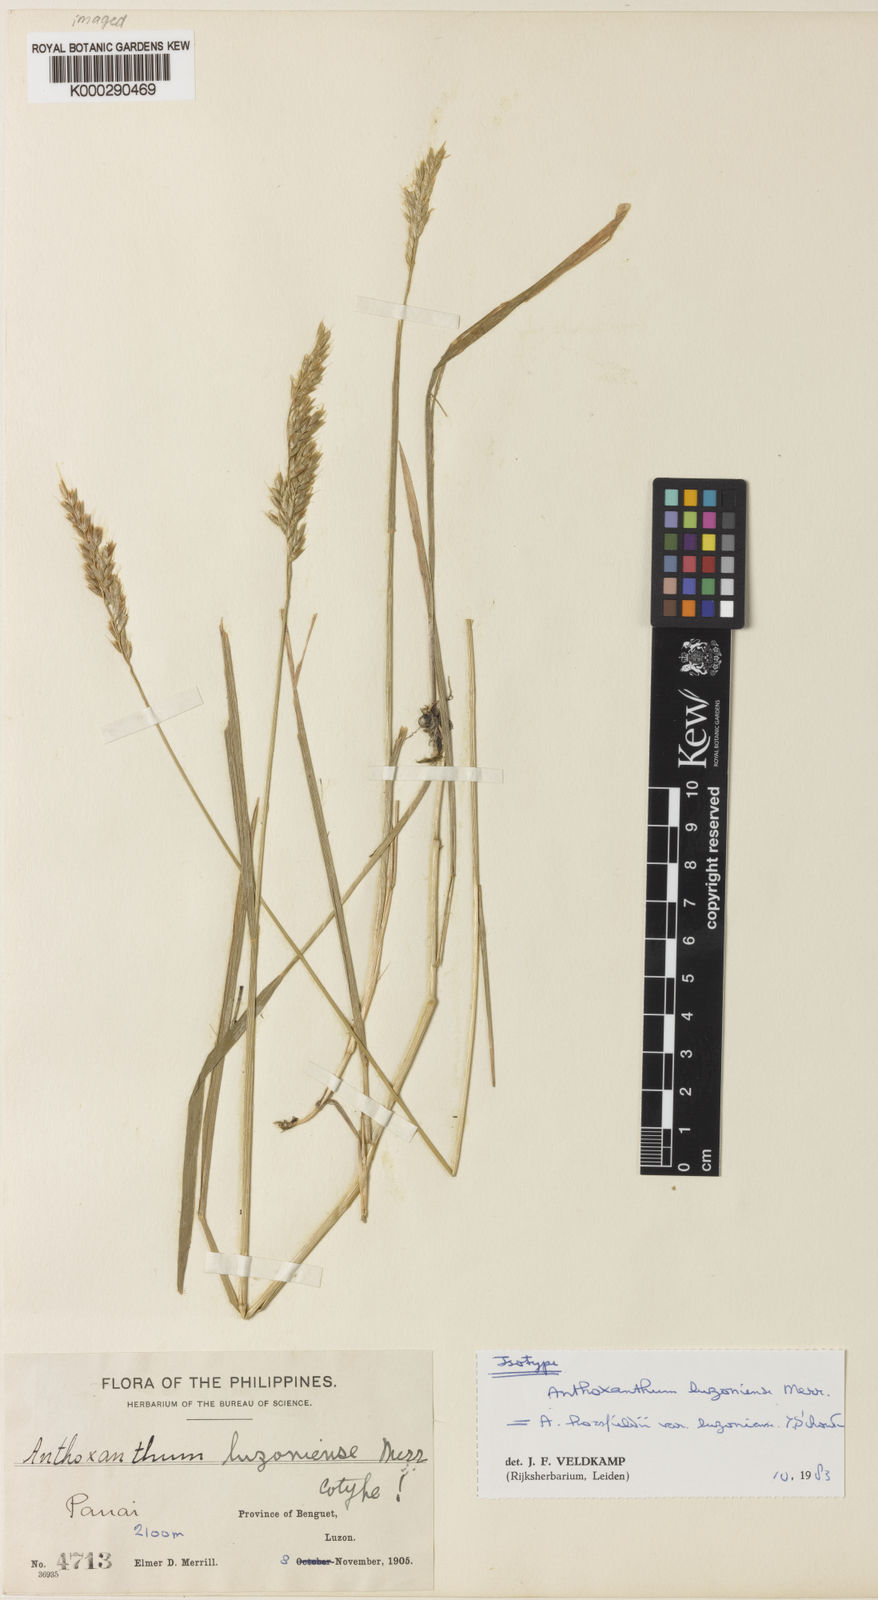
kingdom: Plantae
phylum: Tracheophyta
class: Liliopsida
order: Poales
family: Poaceae
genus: Anthoxanthum
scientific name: Anthoxanthum
